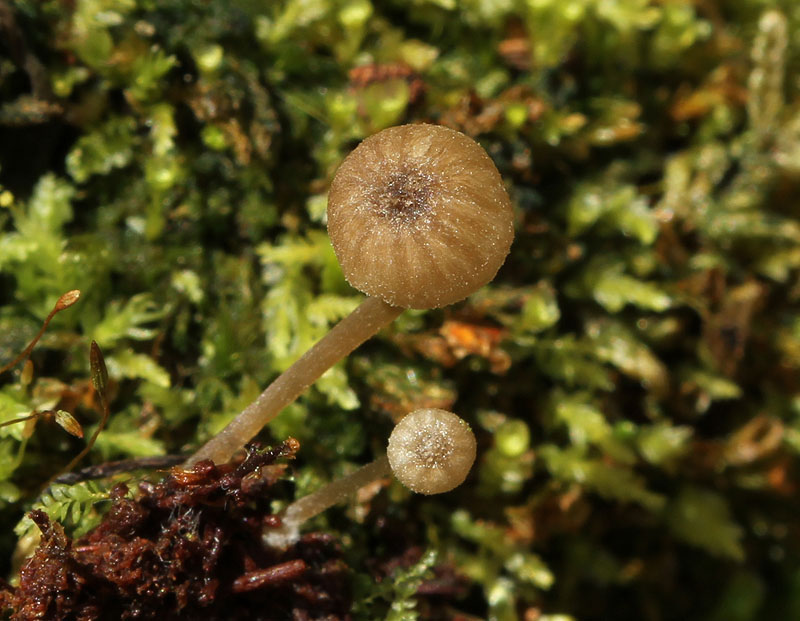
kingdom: Fungi
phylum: Basidiomycota
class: Agaricomycetes
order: Agaricales
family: Entolomataceae
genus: Entoloma
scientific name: Entoloma rhodocylix
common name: fjernbladet rødblad
